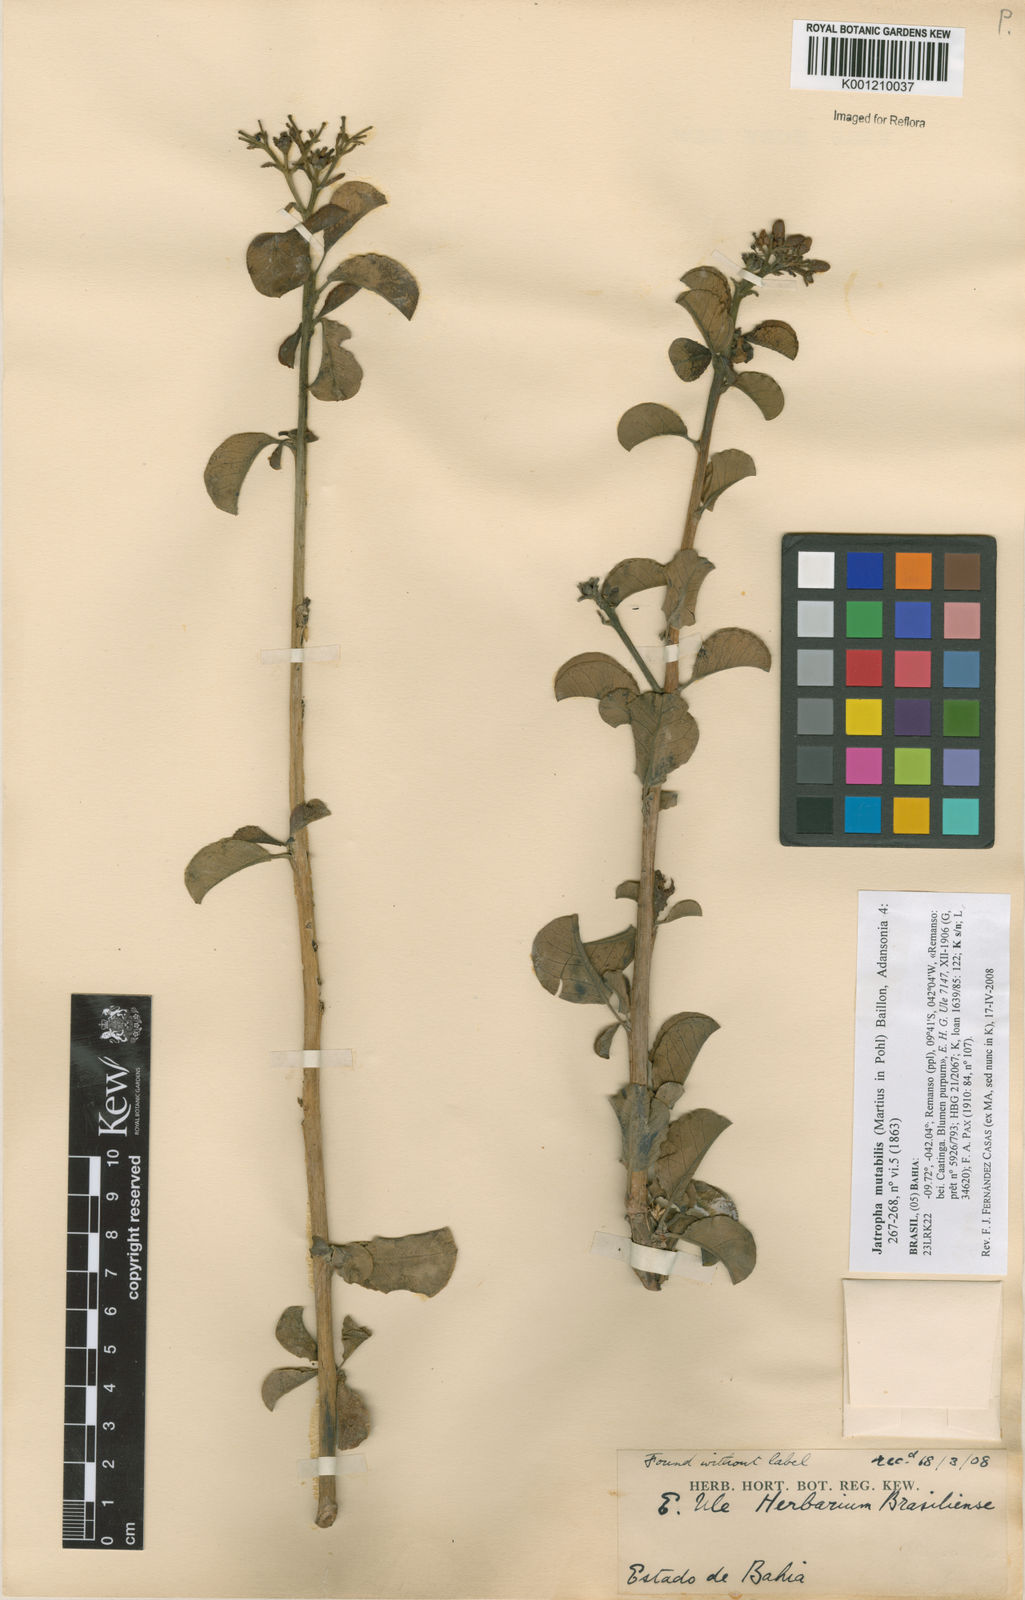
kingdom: Plantae
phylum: Tracheophyta
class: Magnoliopsida
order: Malpighiales
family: Euphorbiaceae
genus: Jatropha
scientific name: Jatropha mutabilis
